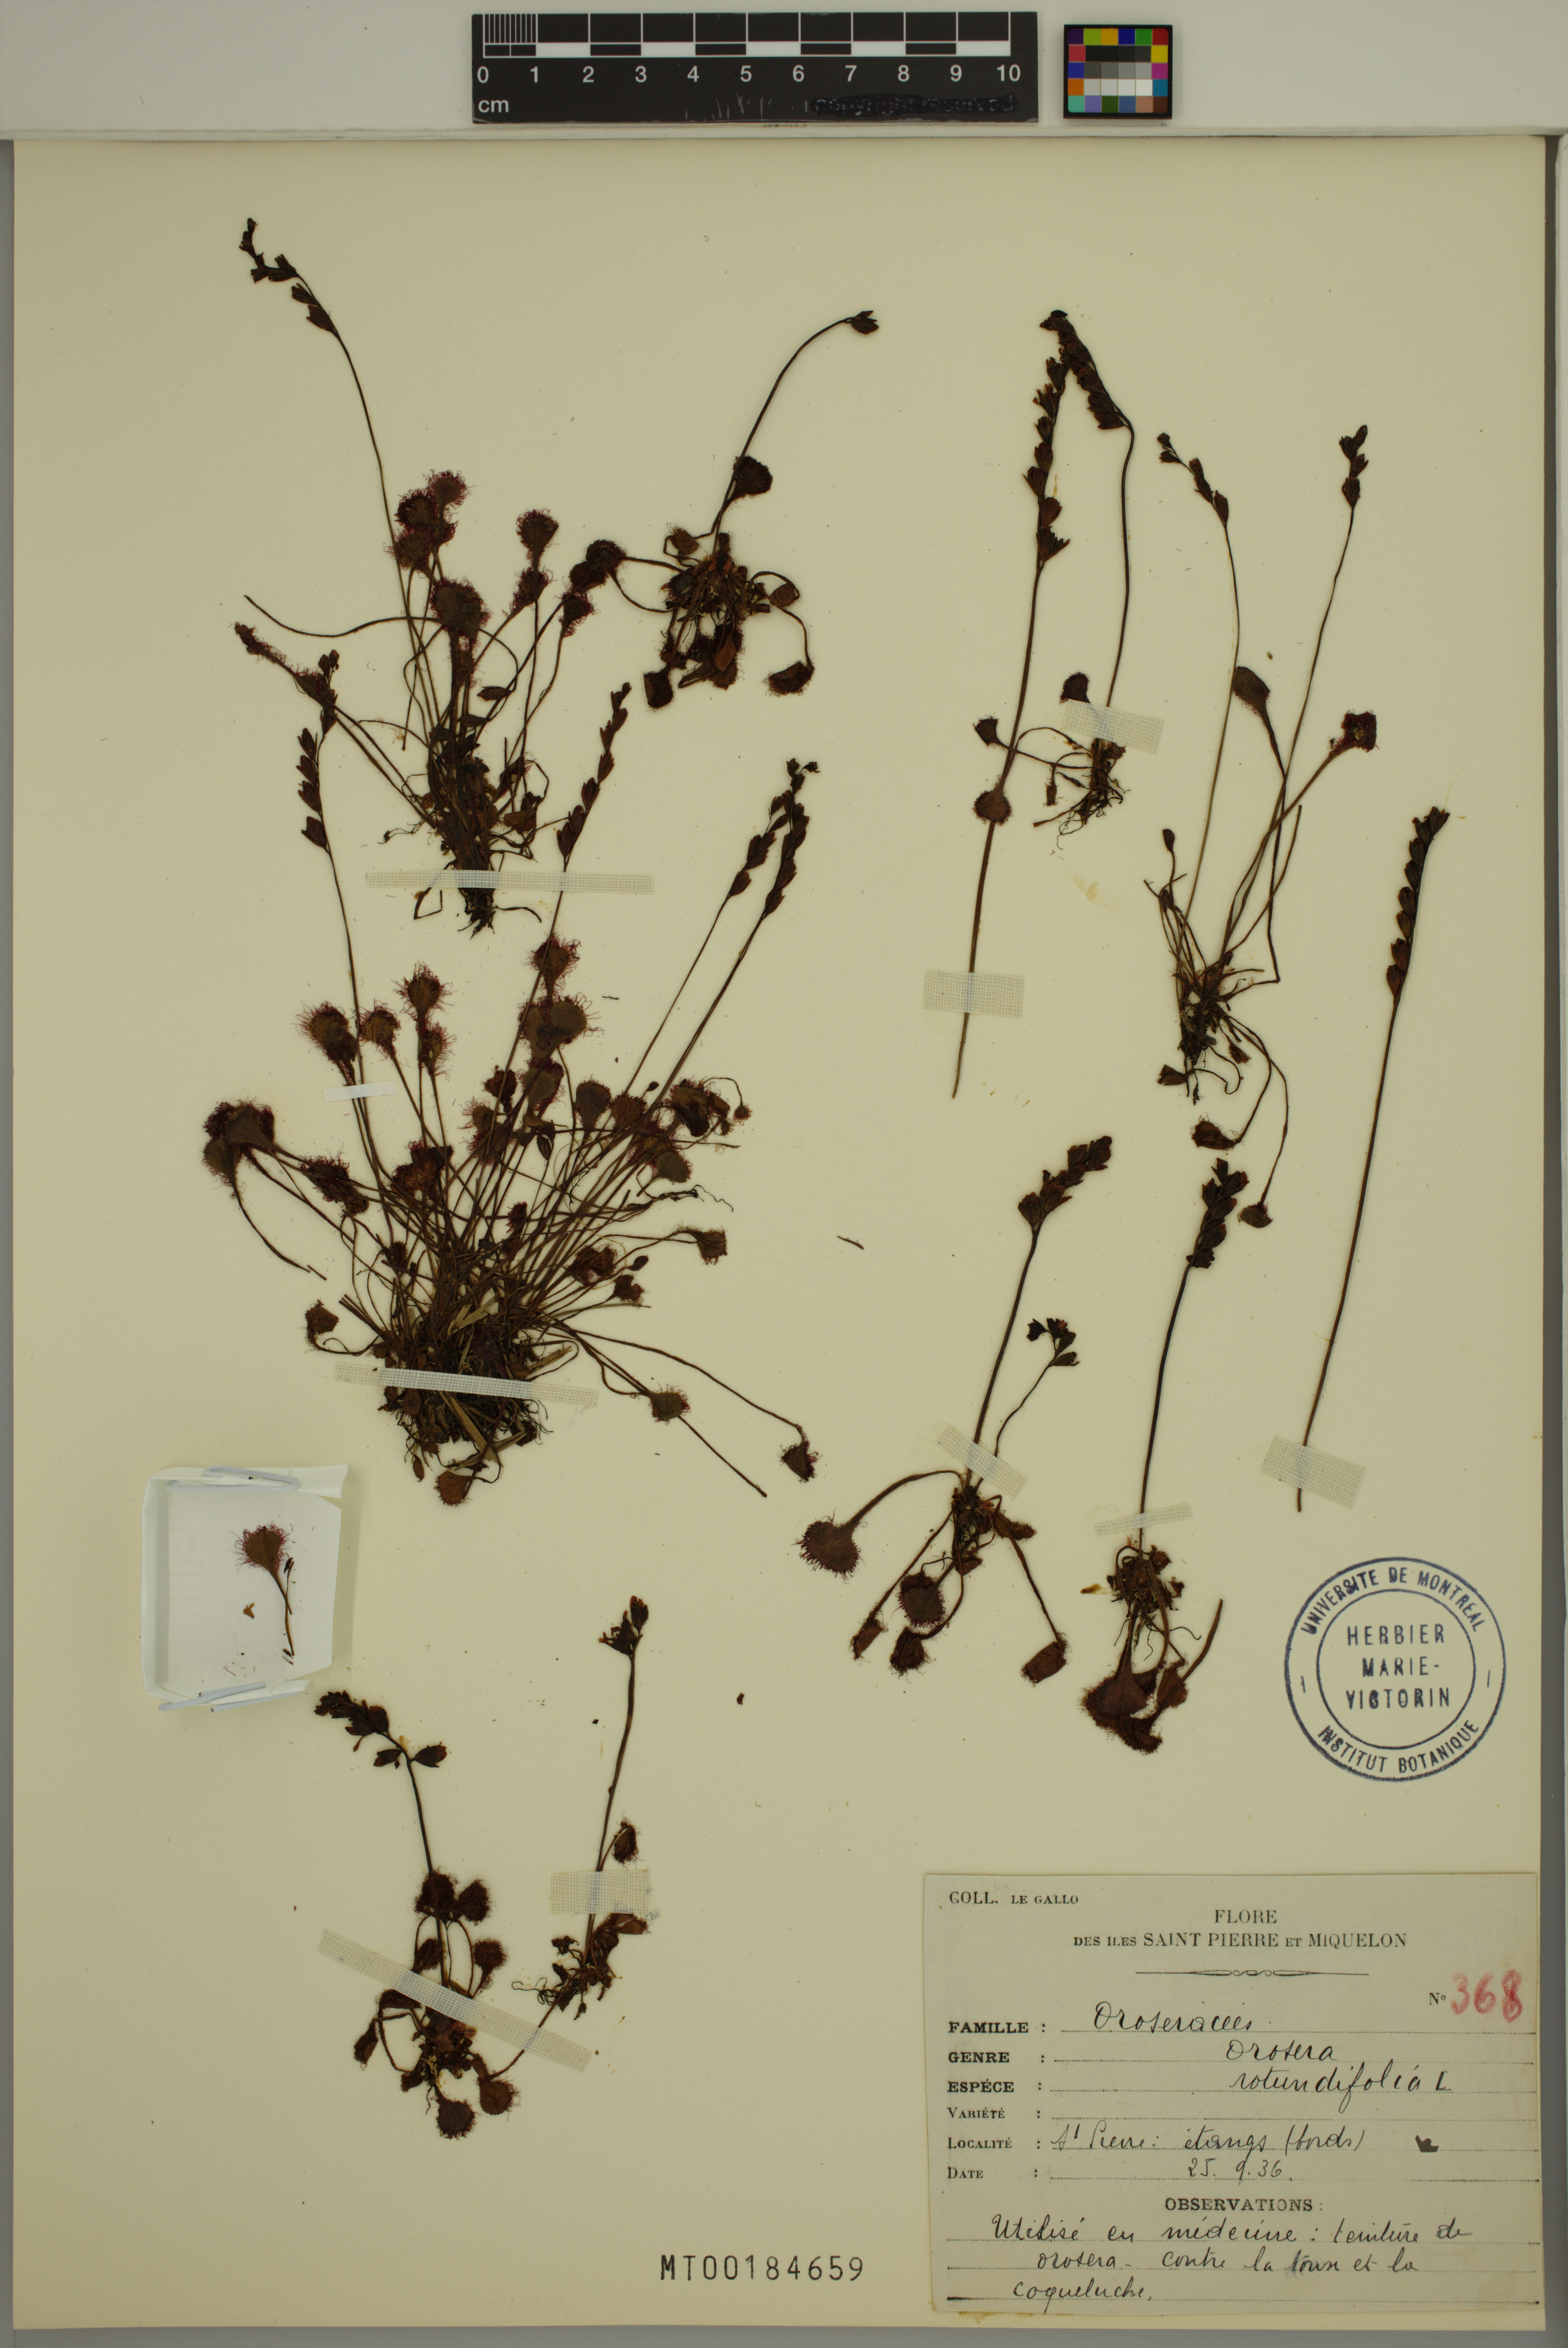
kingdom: Plantae
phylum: Tracheophyta
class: Magnoliopsida
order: Caryophyllales
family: Droseraceae
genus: Drosera
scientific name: Drosera rotundifolia
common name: Round-leaved sundew
